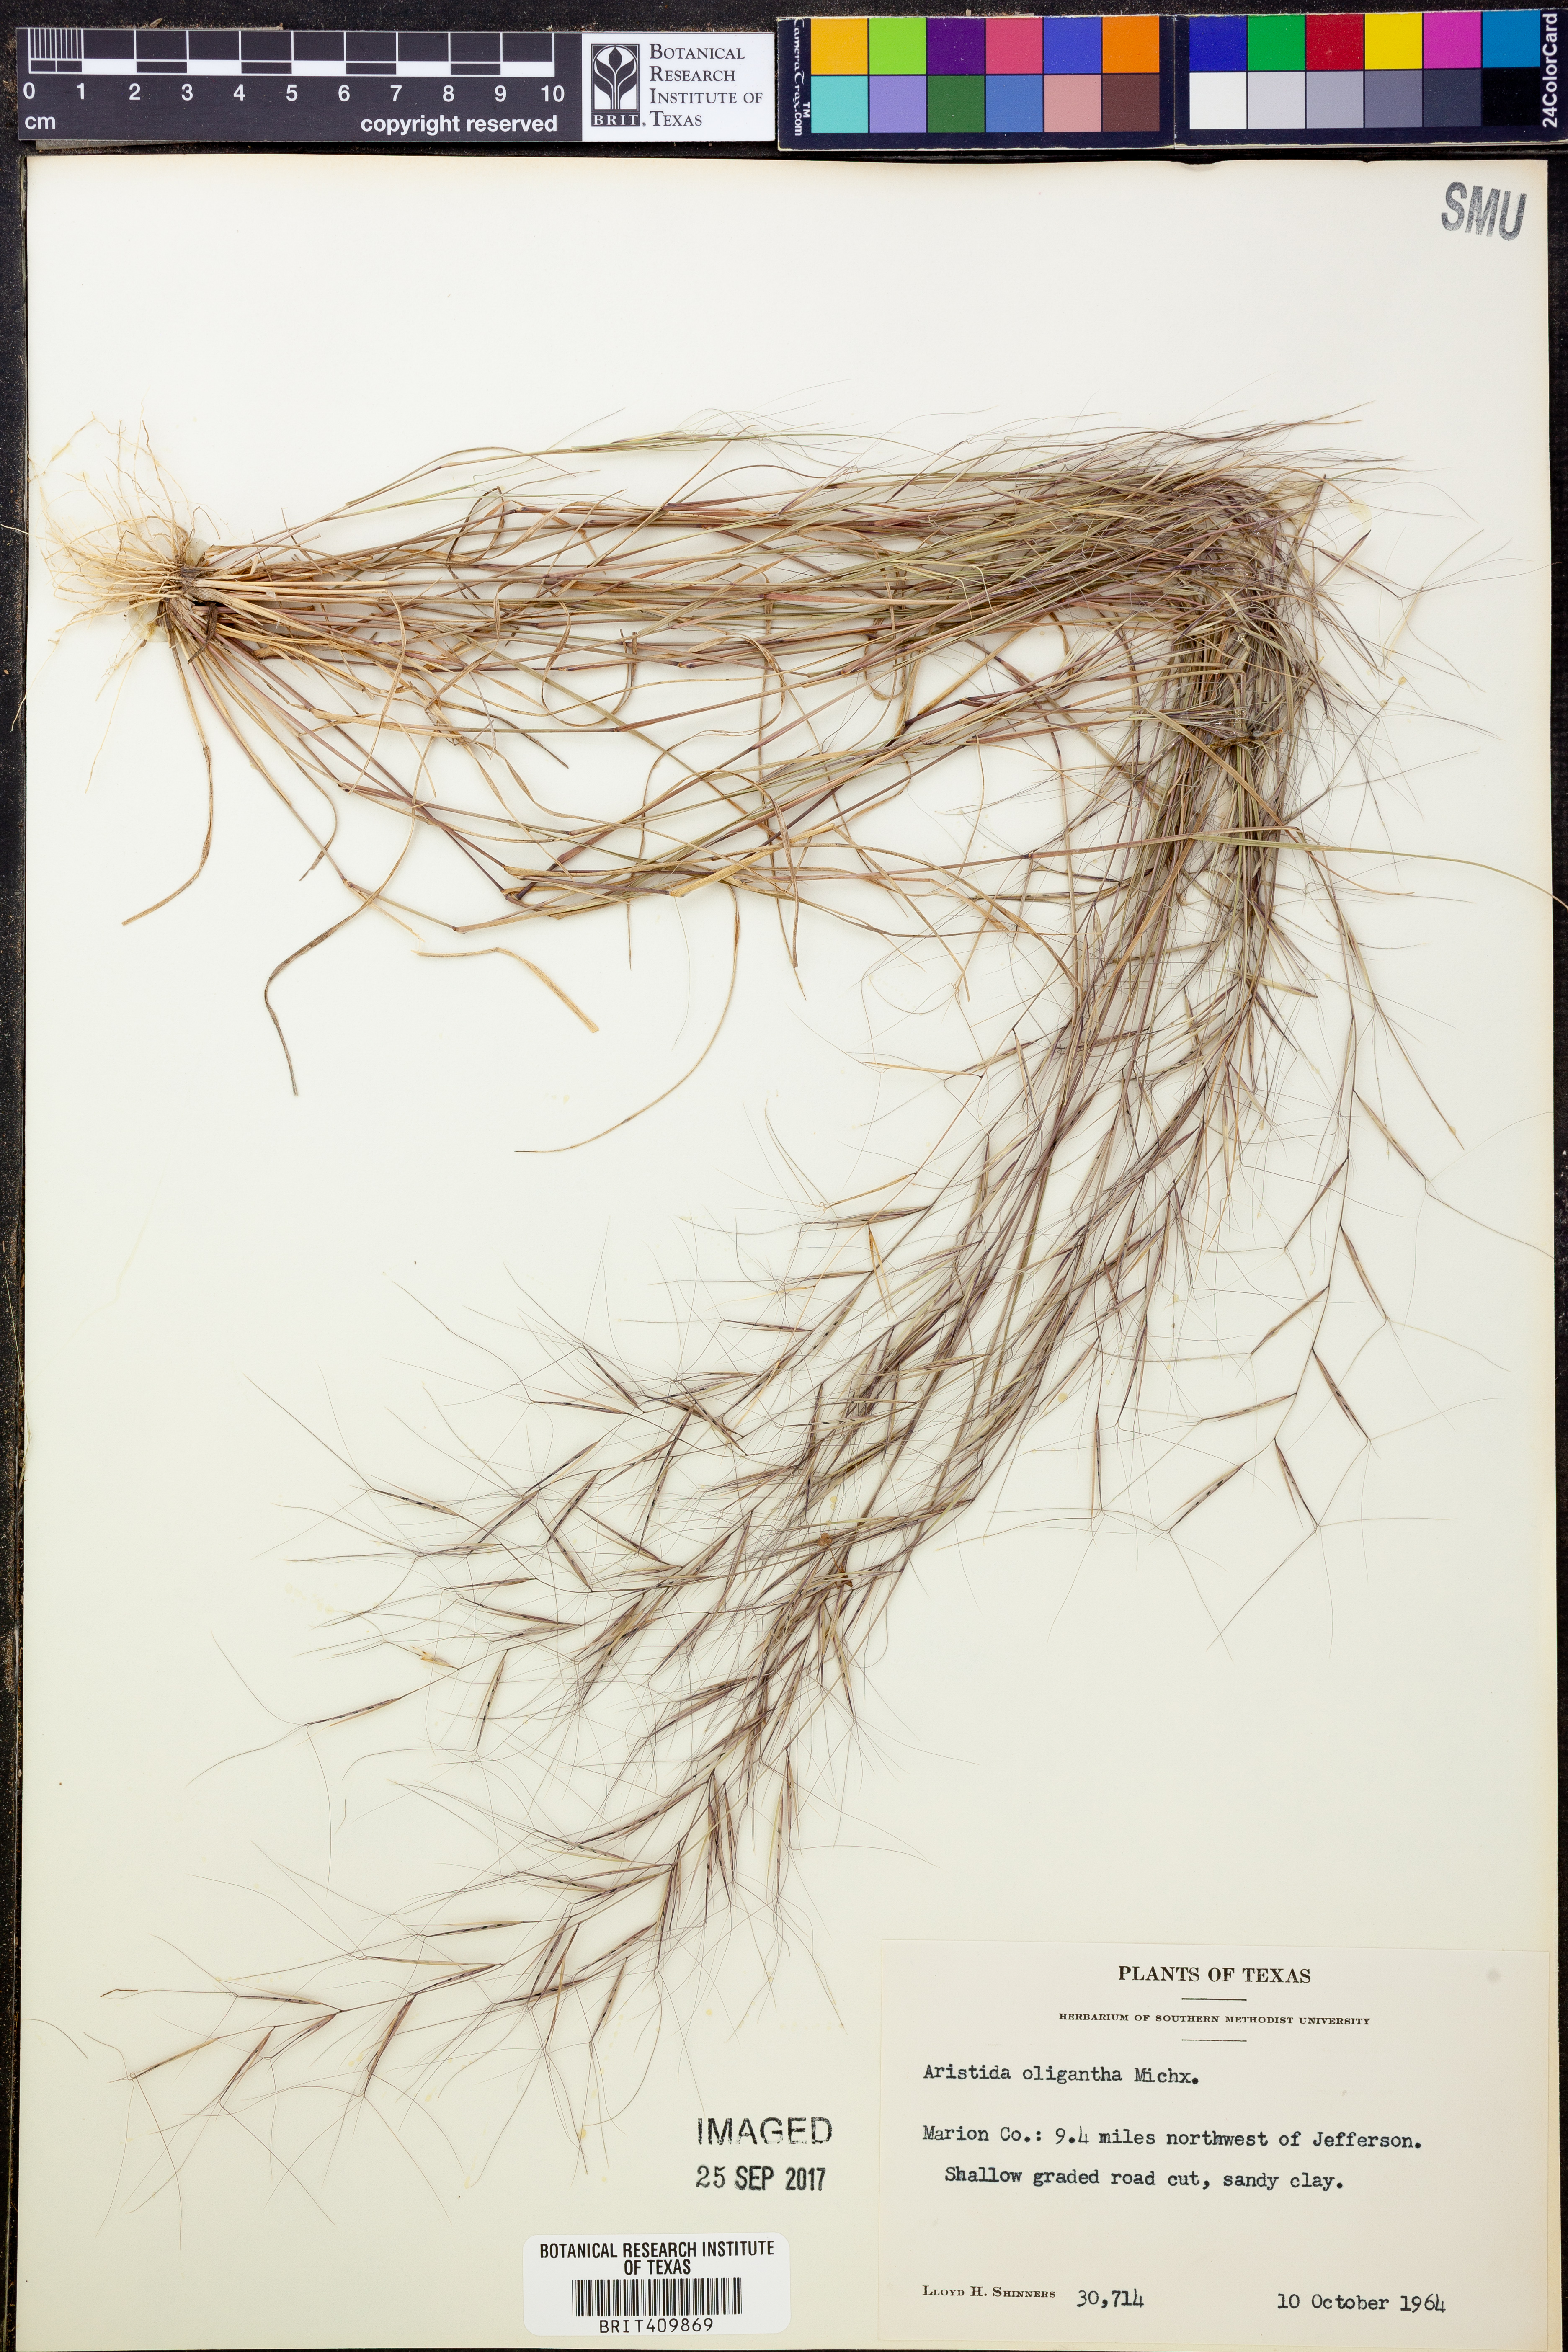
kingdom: Plantae
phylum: Tracheophyta
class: Liliopsida
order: Poales
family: Poaceae
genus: Aristida
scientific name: Aristida oligantha
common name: Few-flowered aristida
